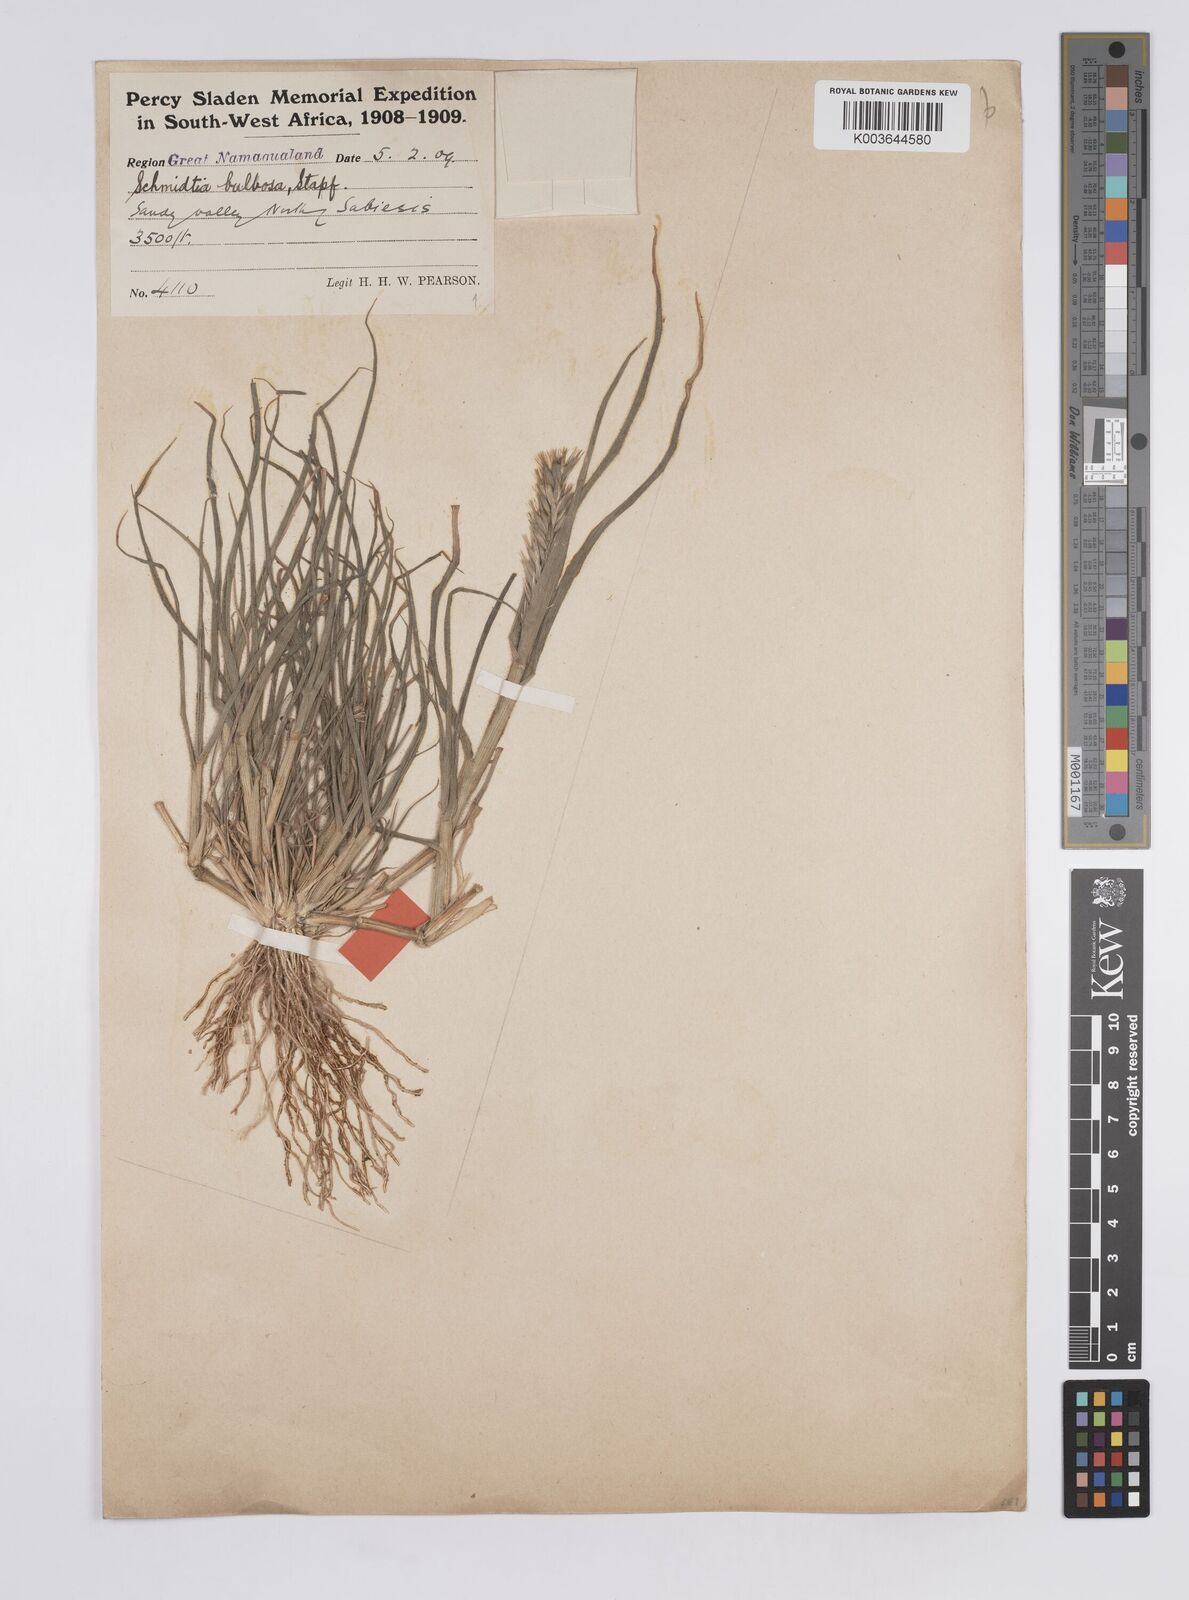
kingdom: Plantae
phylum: Tracheophyta
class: Liliopsida
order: Poales
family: Poaceae
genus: Schmidtia
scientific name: Schmidtia kalahariensis
